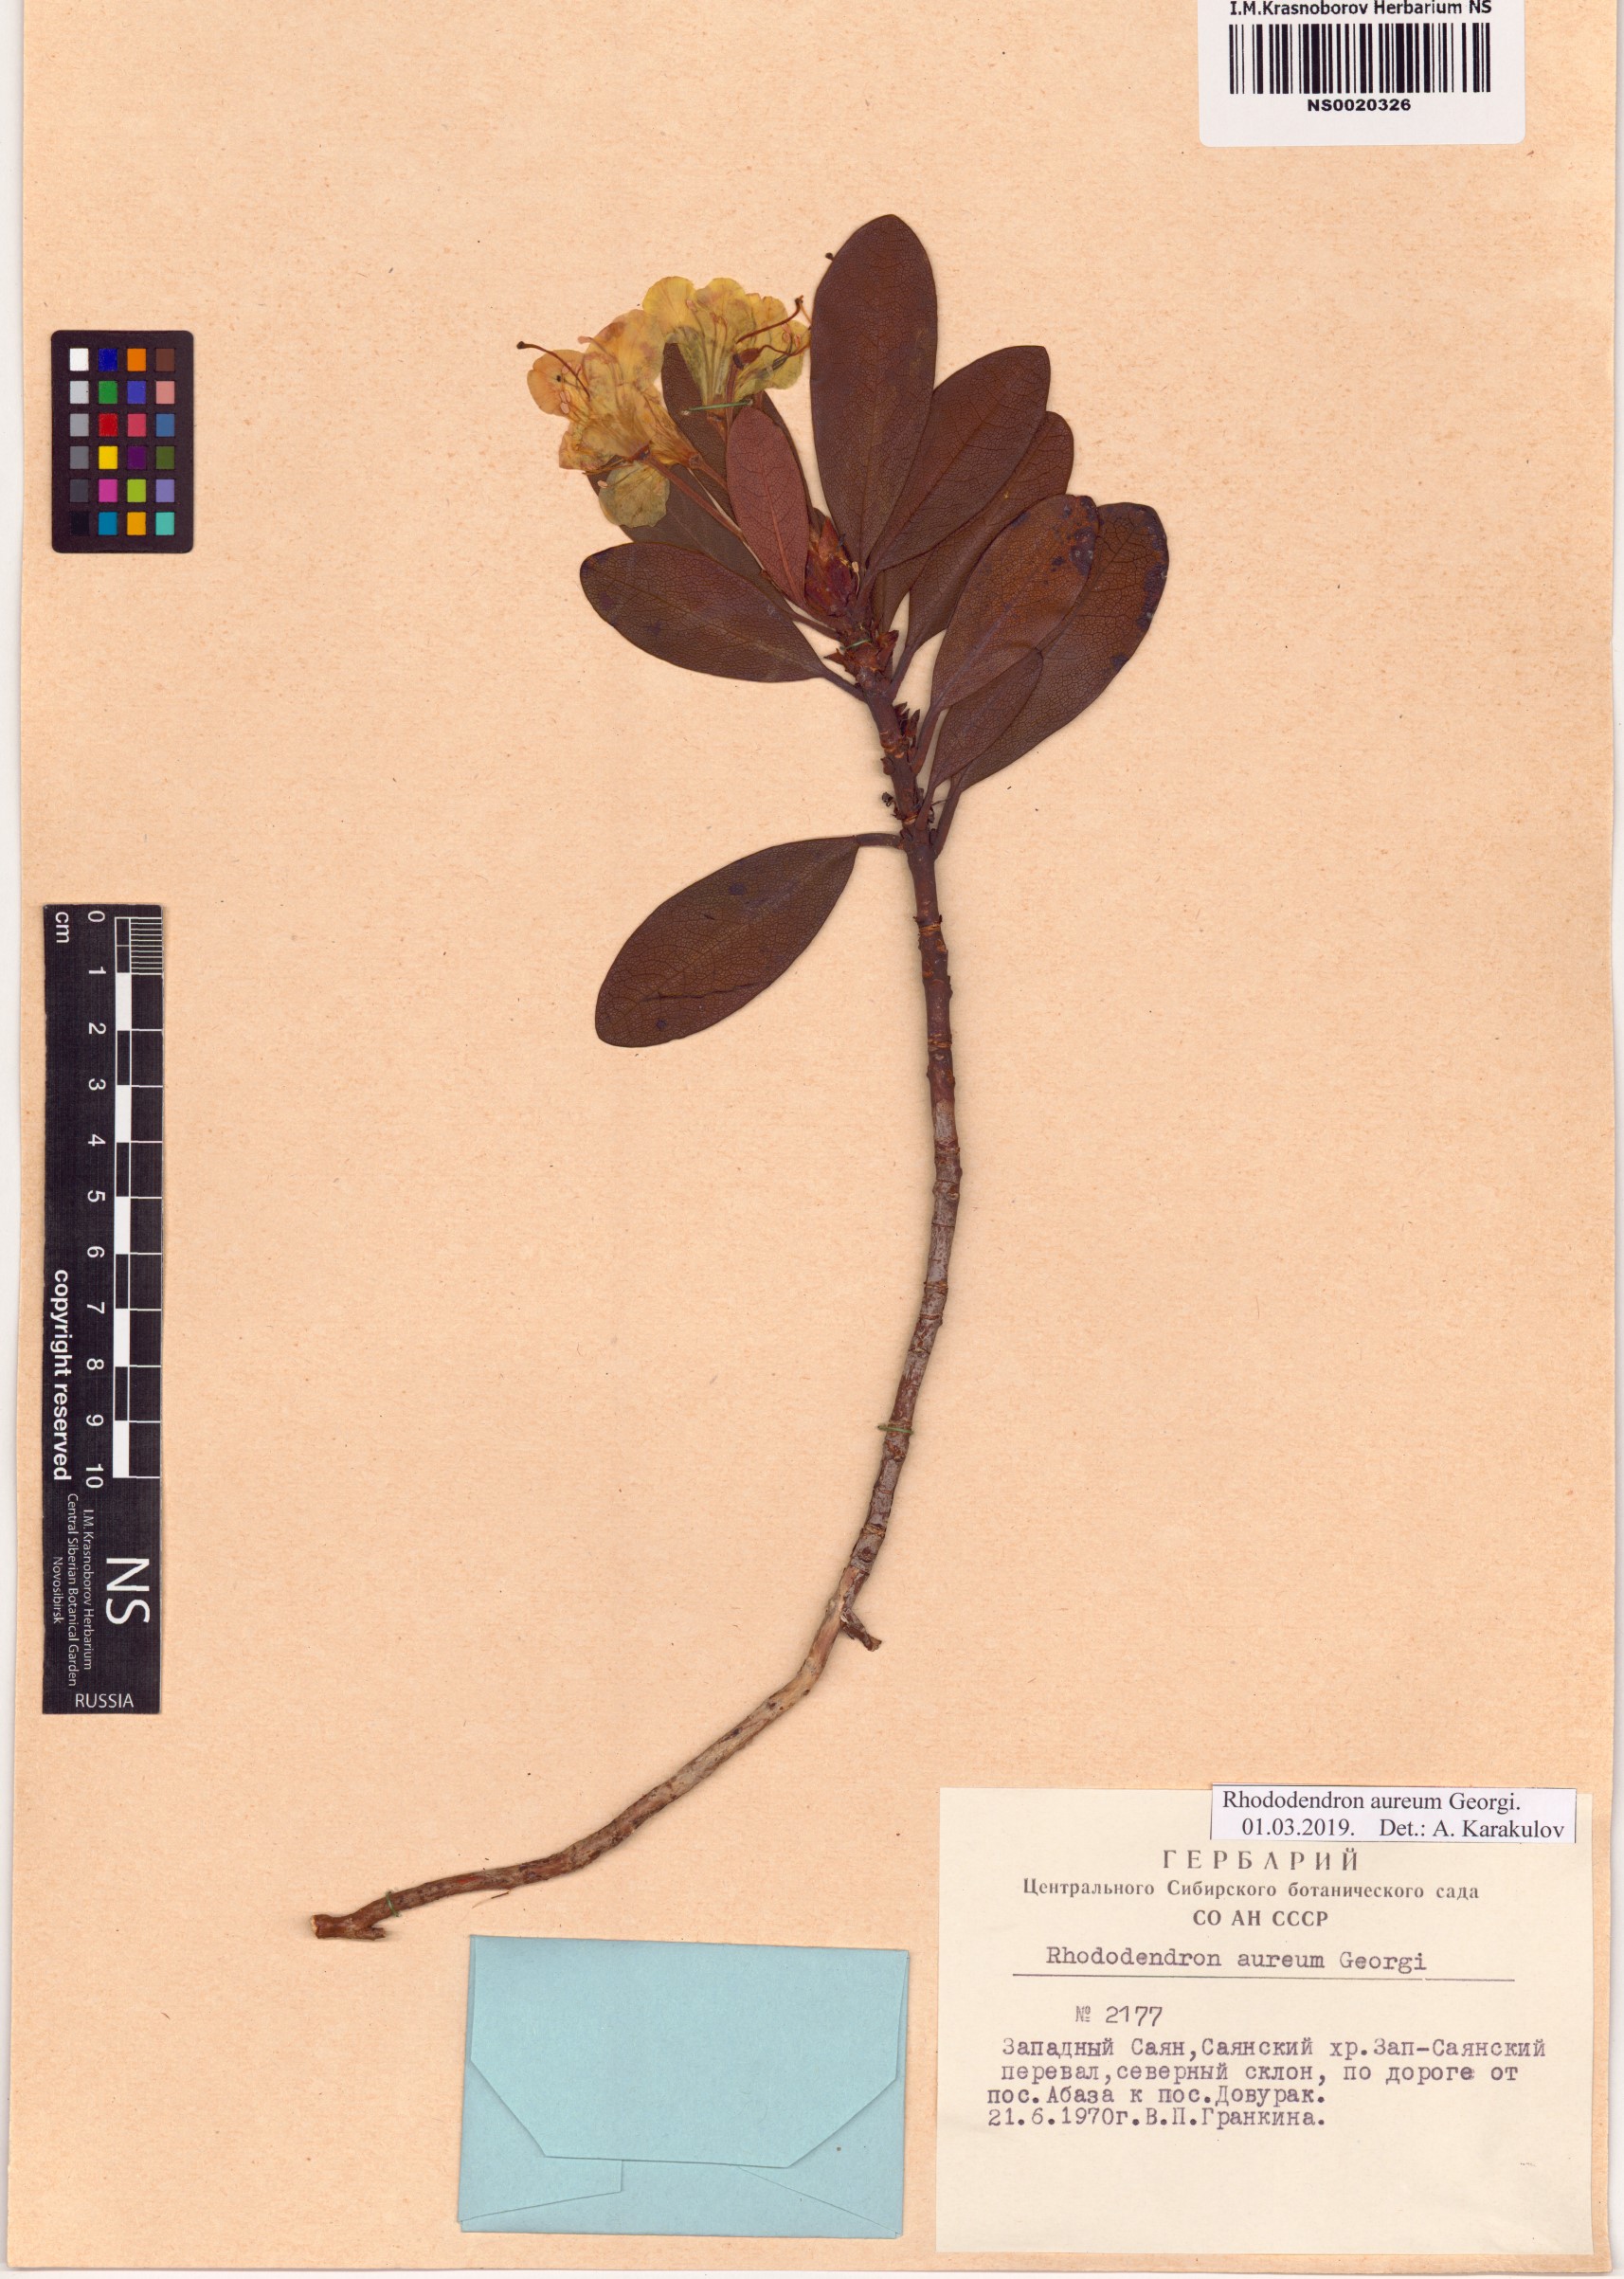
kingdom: Plantae
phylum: Tracheophyta
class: Magnoliopsida
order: Ericales
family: Ericaceae
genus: Rhododendron
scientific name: Rhododendron aureum
